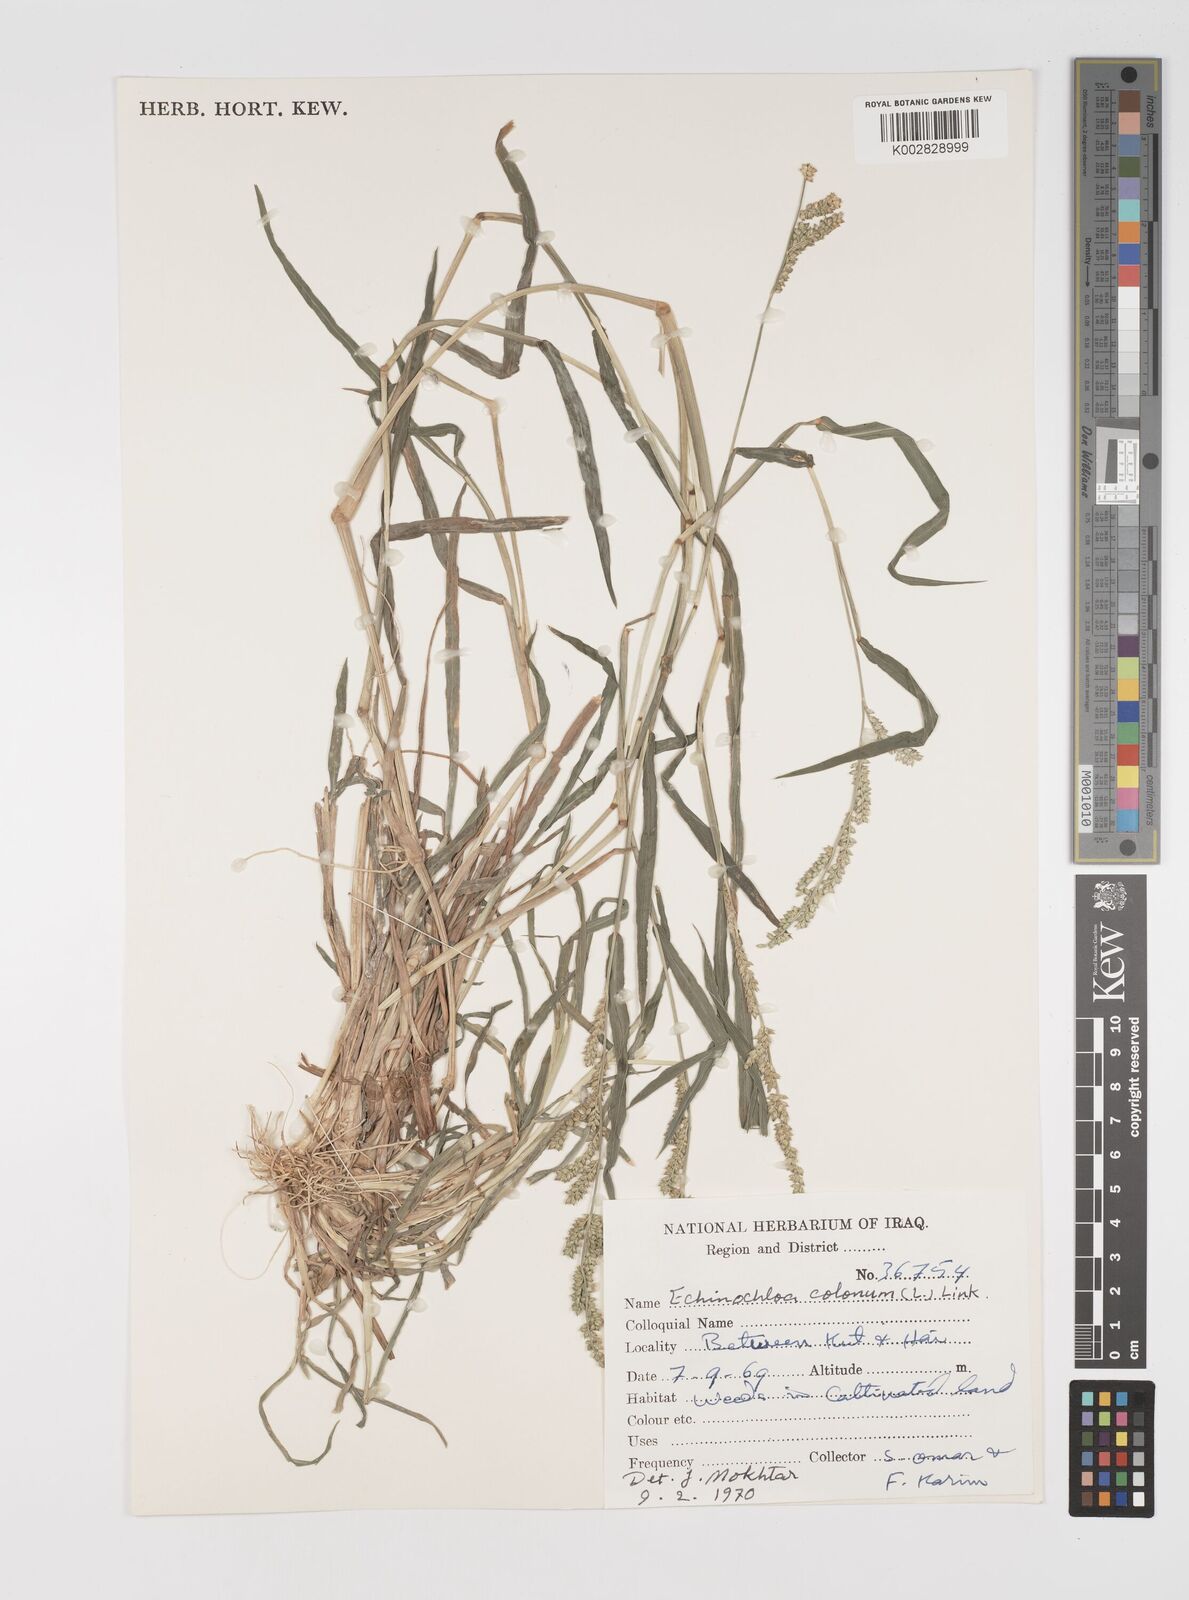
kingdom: Plantae
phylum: Tracheophyta
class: Liliopsida
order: Poales
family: Poaceae
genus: Echinochloa
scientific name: Echinochloa colonum
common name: Jungle rice
